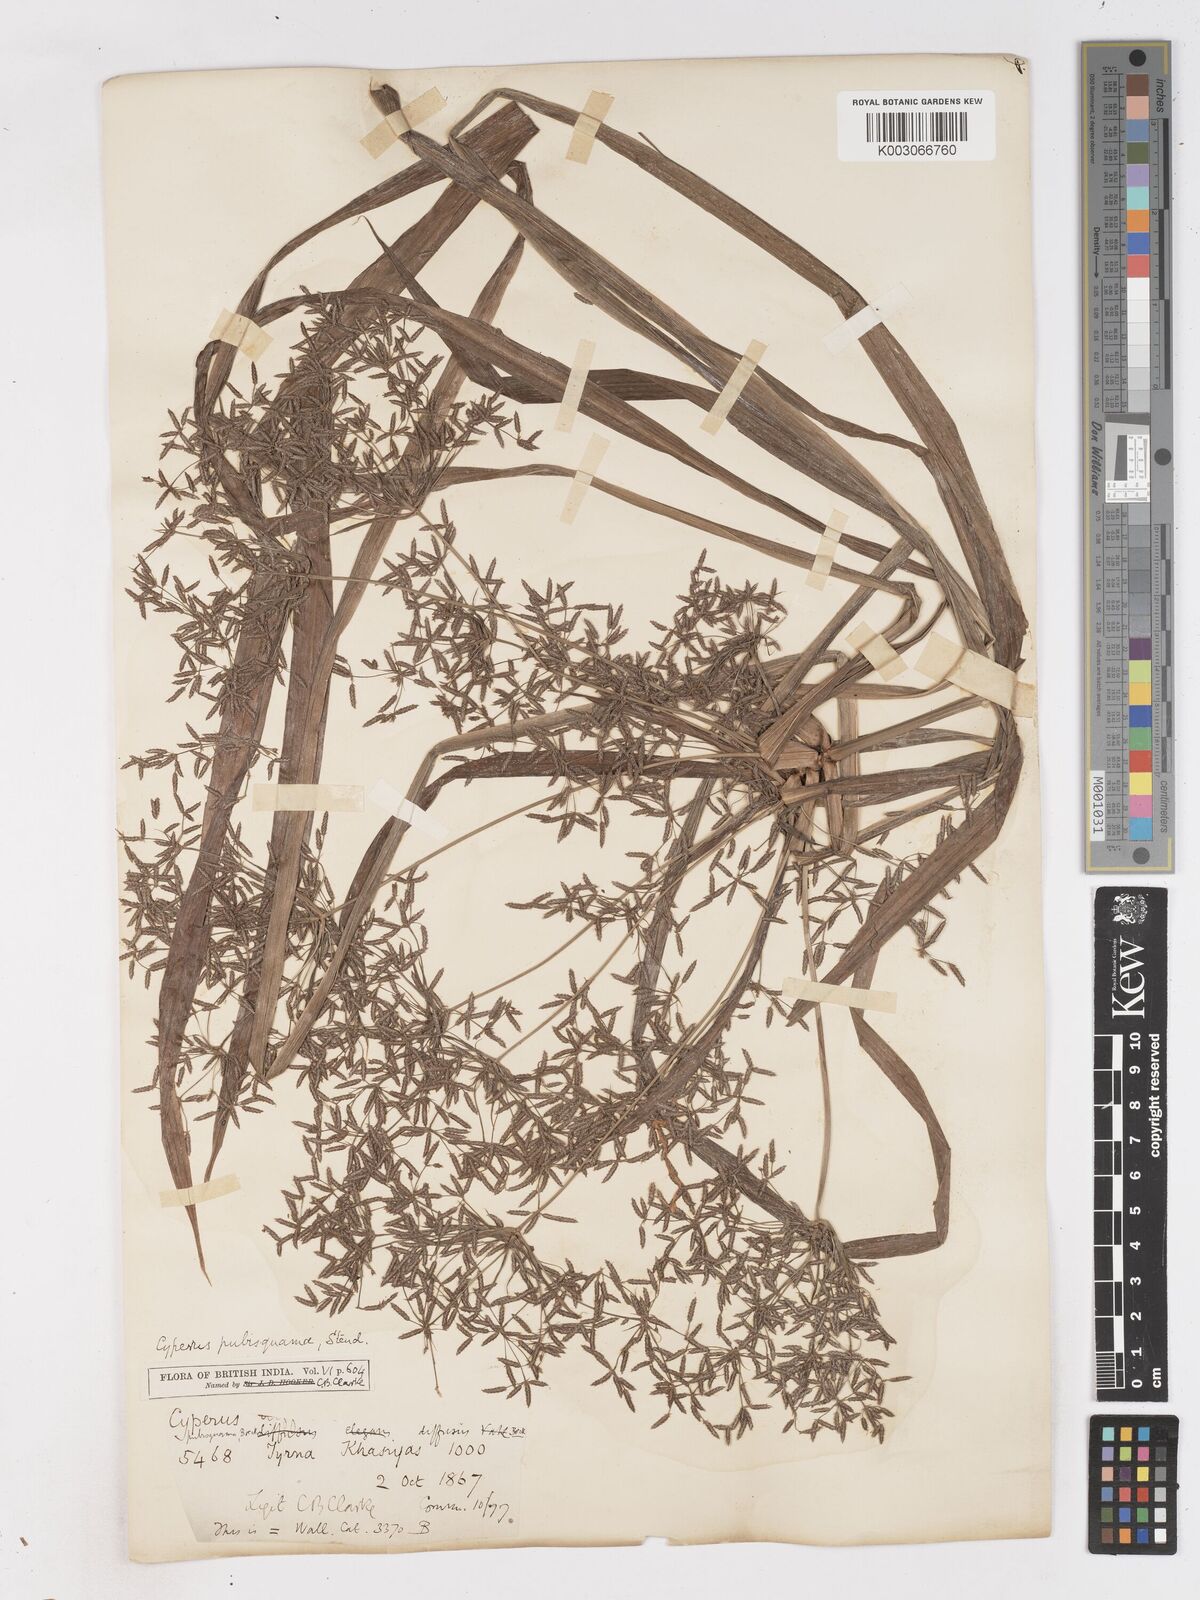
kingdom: Plantae
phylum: Tracheophyta
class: Liliopsida
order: Poales
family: Cyperaceae
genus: Cyperus
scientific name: Cyperus diffusus
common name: Dwarf umbrella grass
